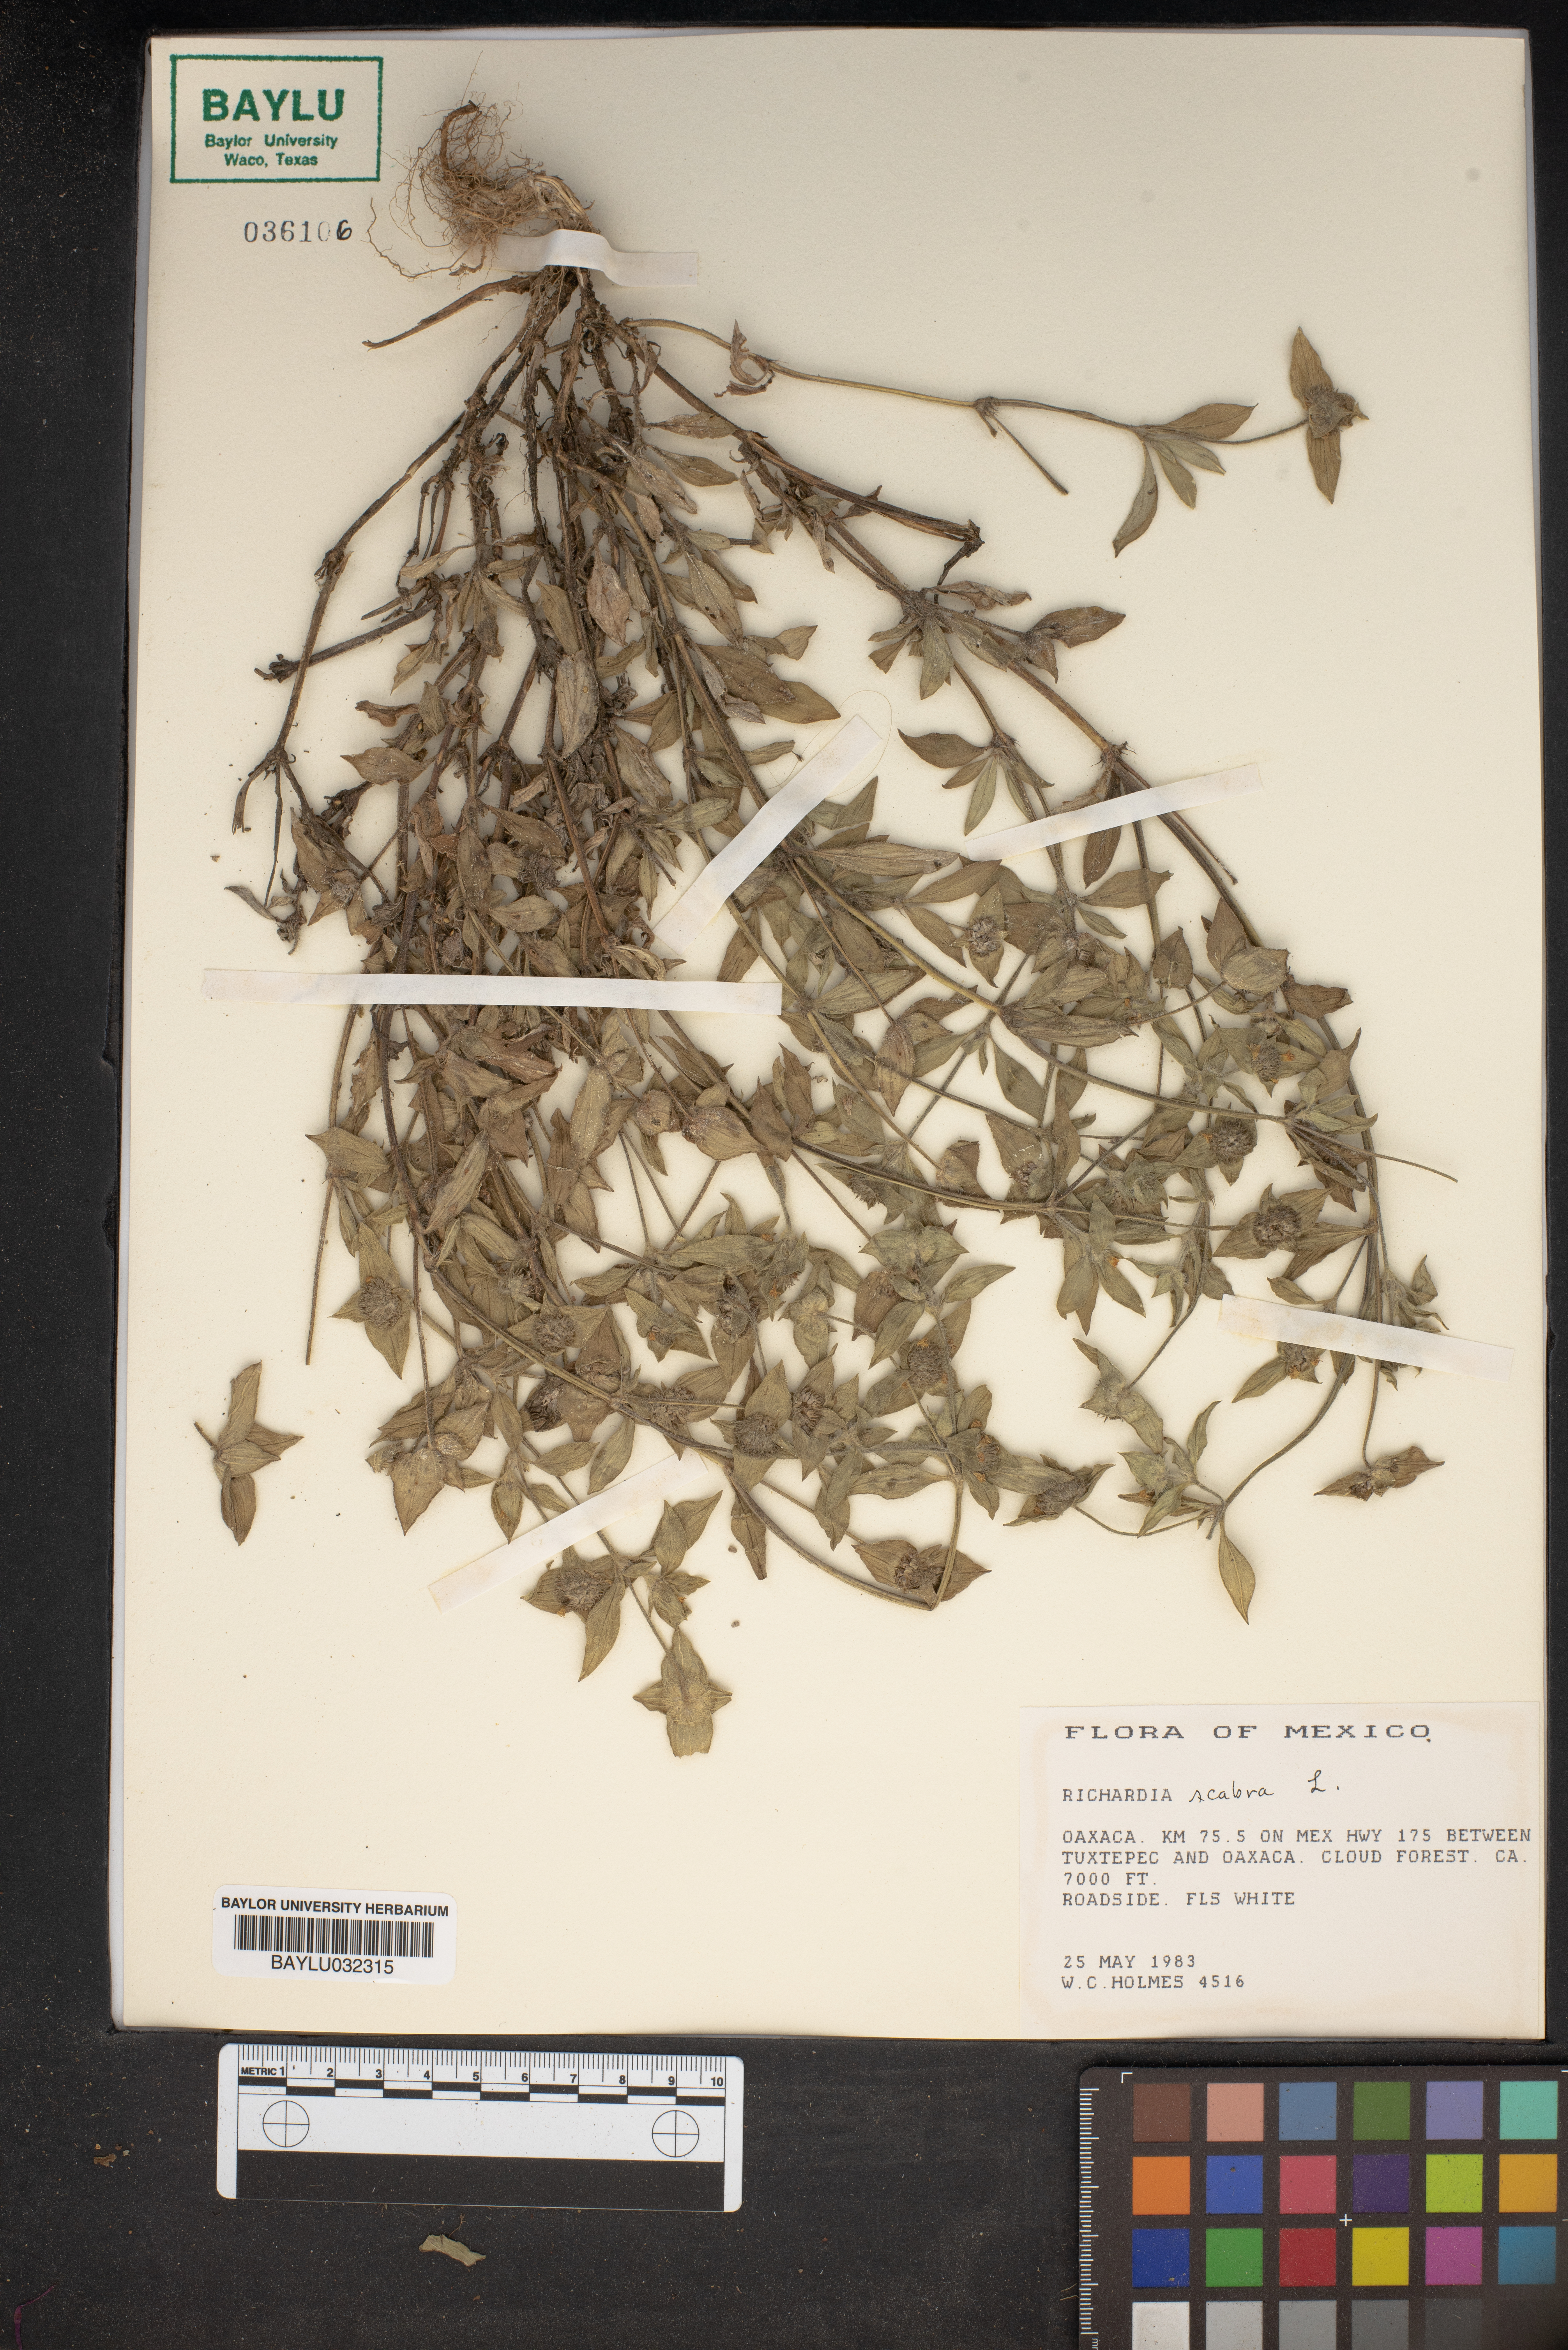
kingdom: Plantae
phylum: Tracheophyta
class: Magnoliopsida
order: Gentianales
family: Rubiaceae
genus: Richardia
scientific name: Richardia scabra
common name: Rough mexican clover
